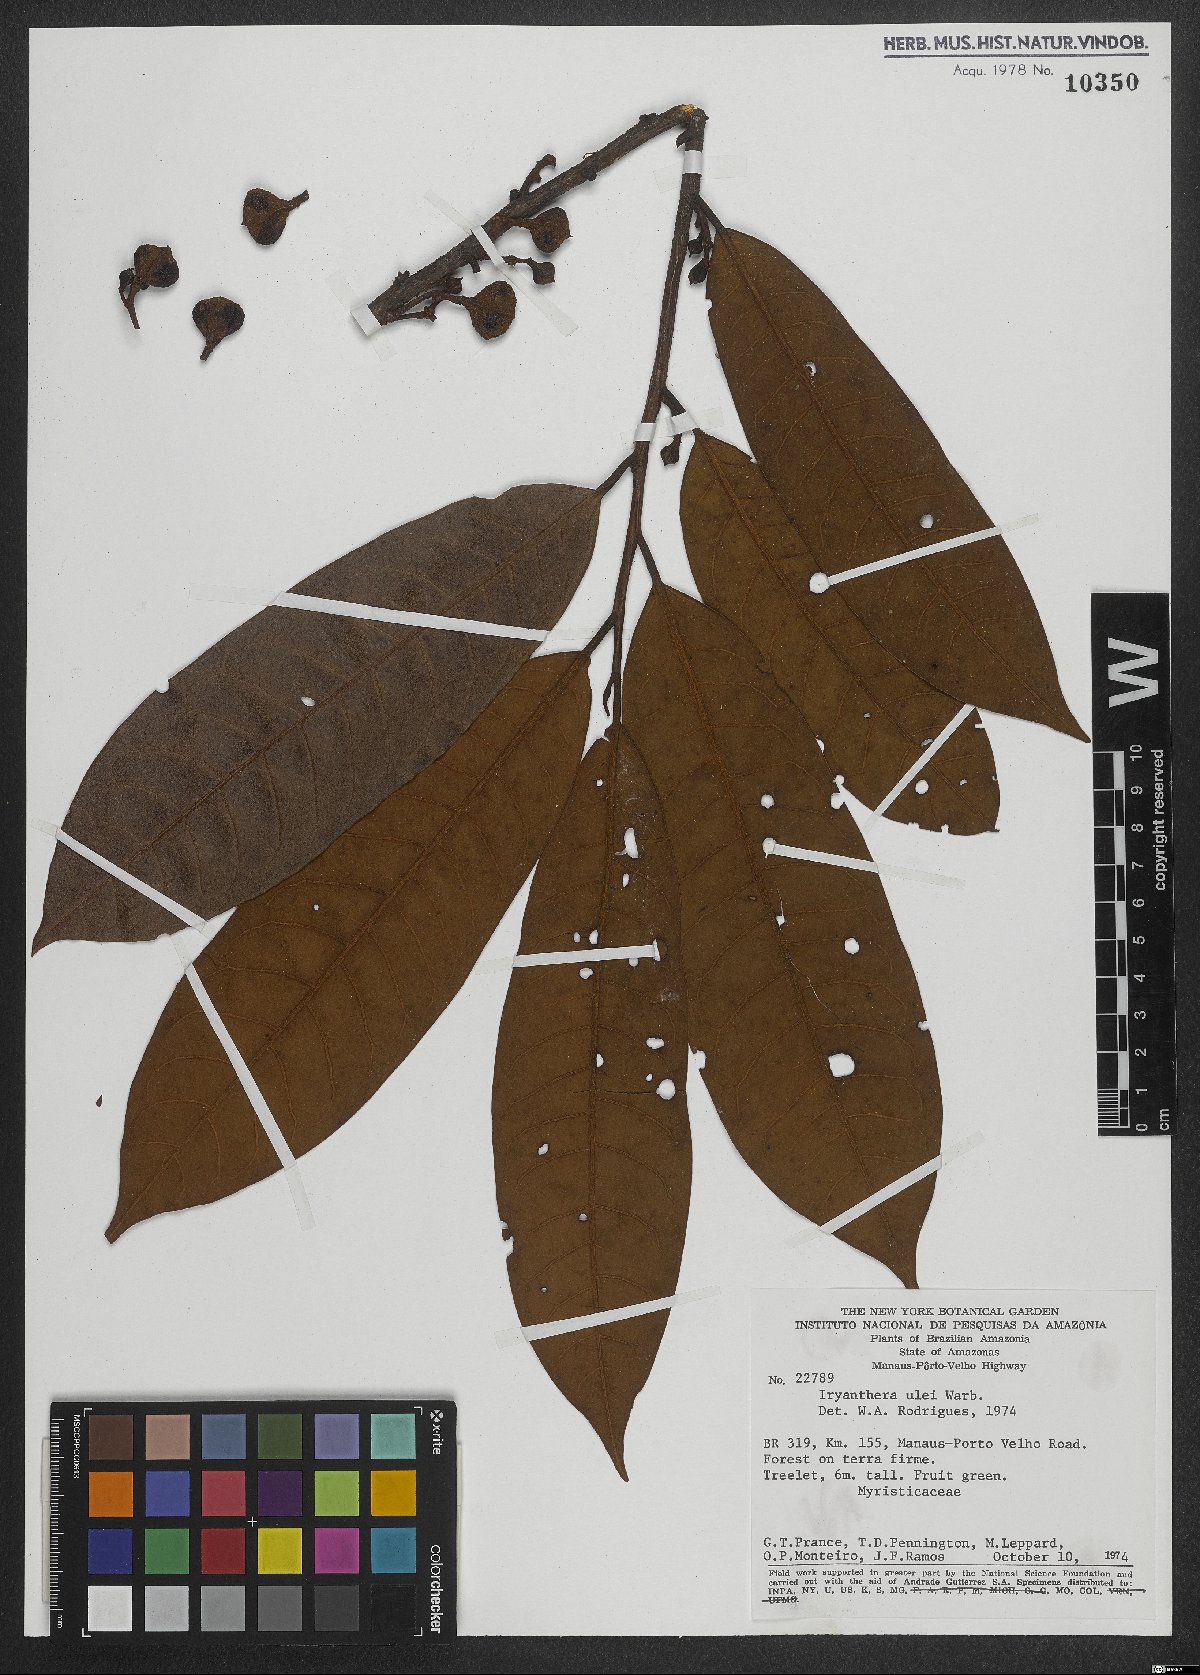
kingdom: Plantae
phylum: Tracheophyta
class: Magnoliopsida
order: Magnoliales
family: Myristicaceae
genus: Iryanthera
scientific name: Iryanthera ulei
